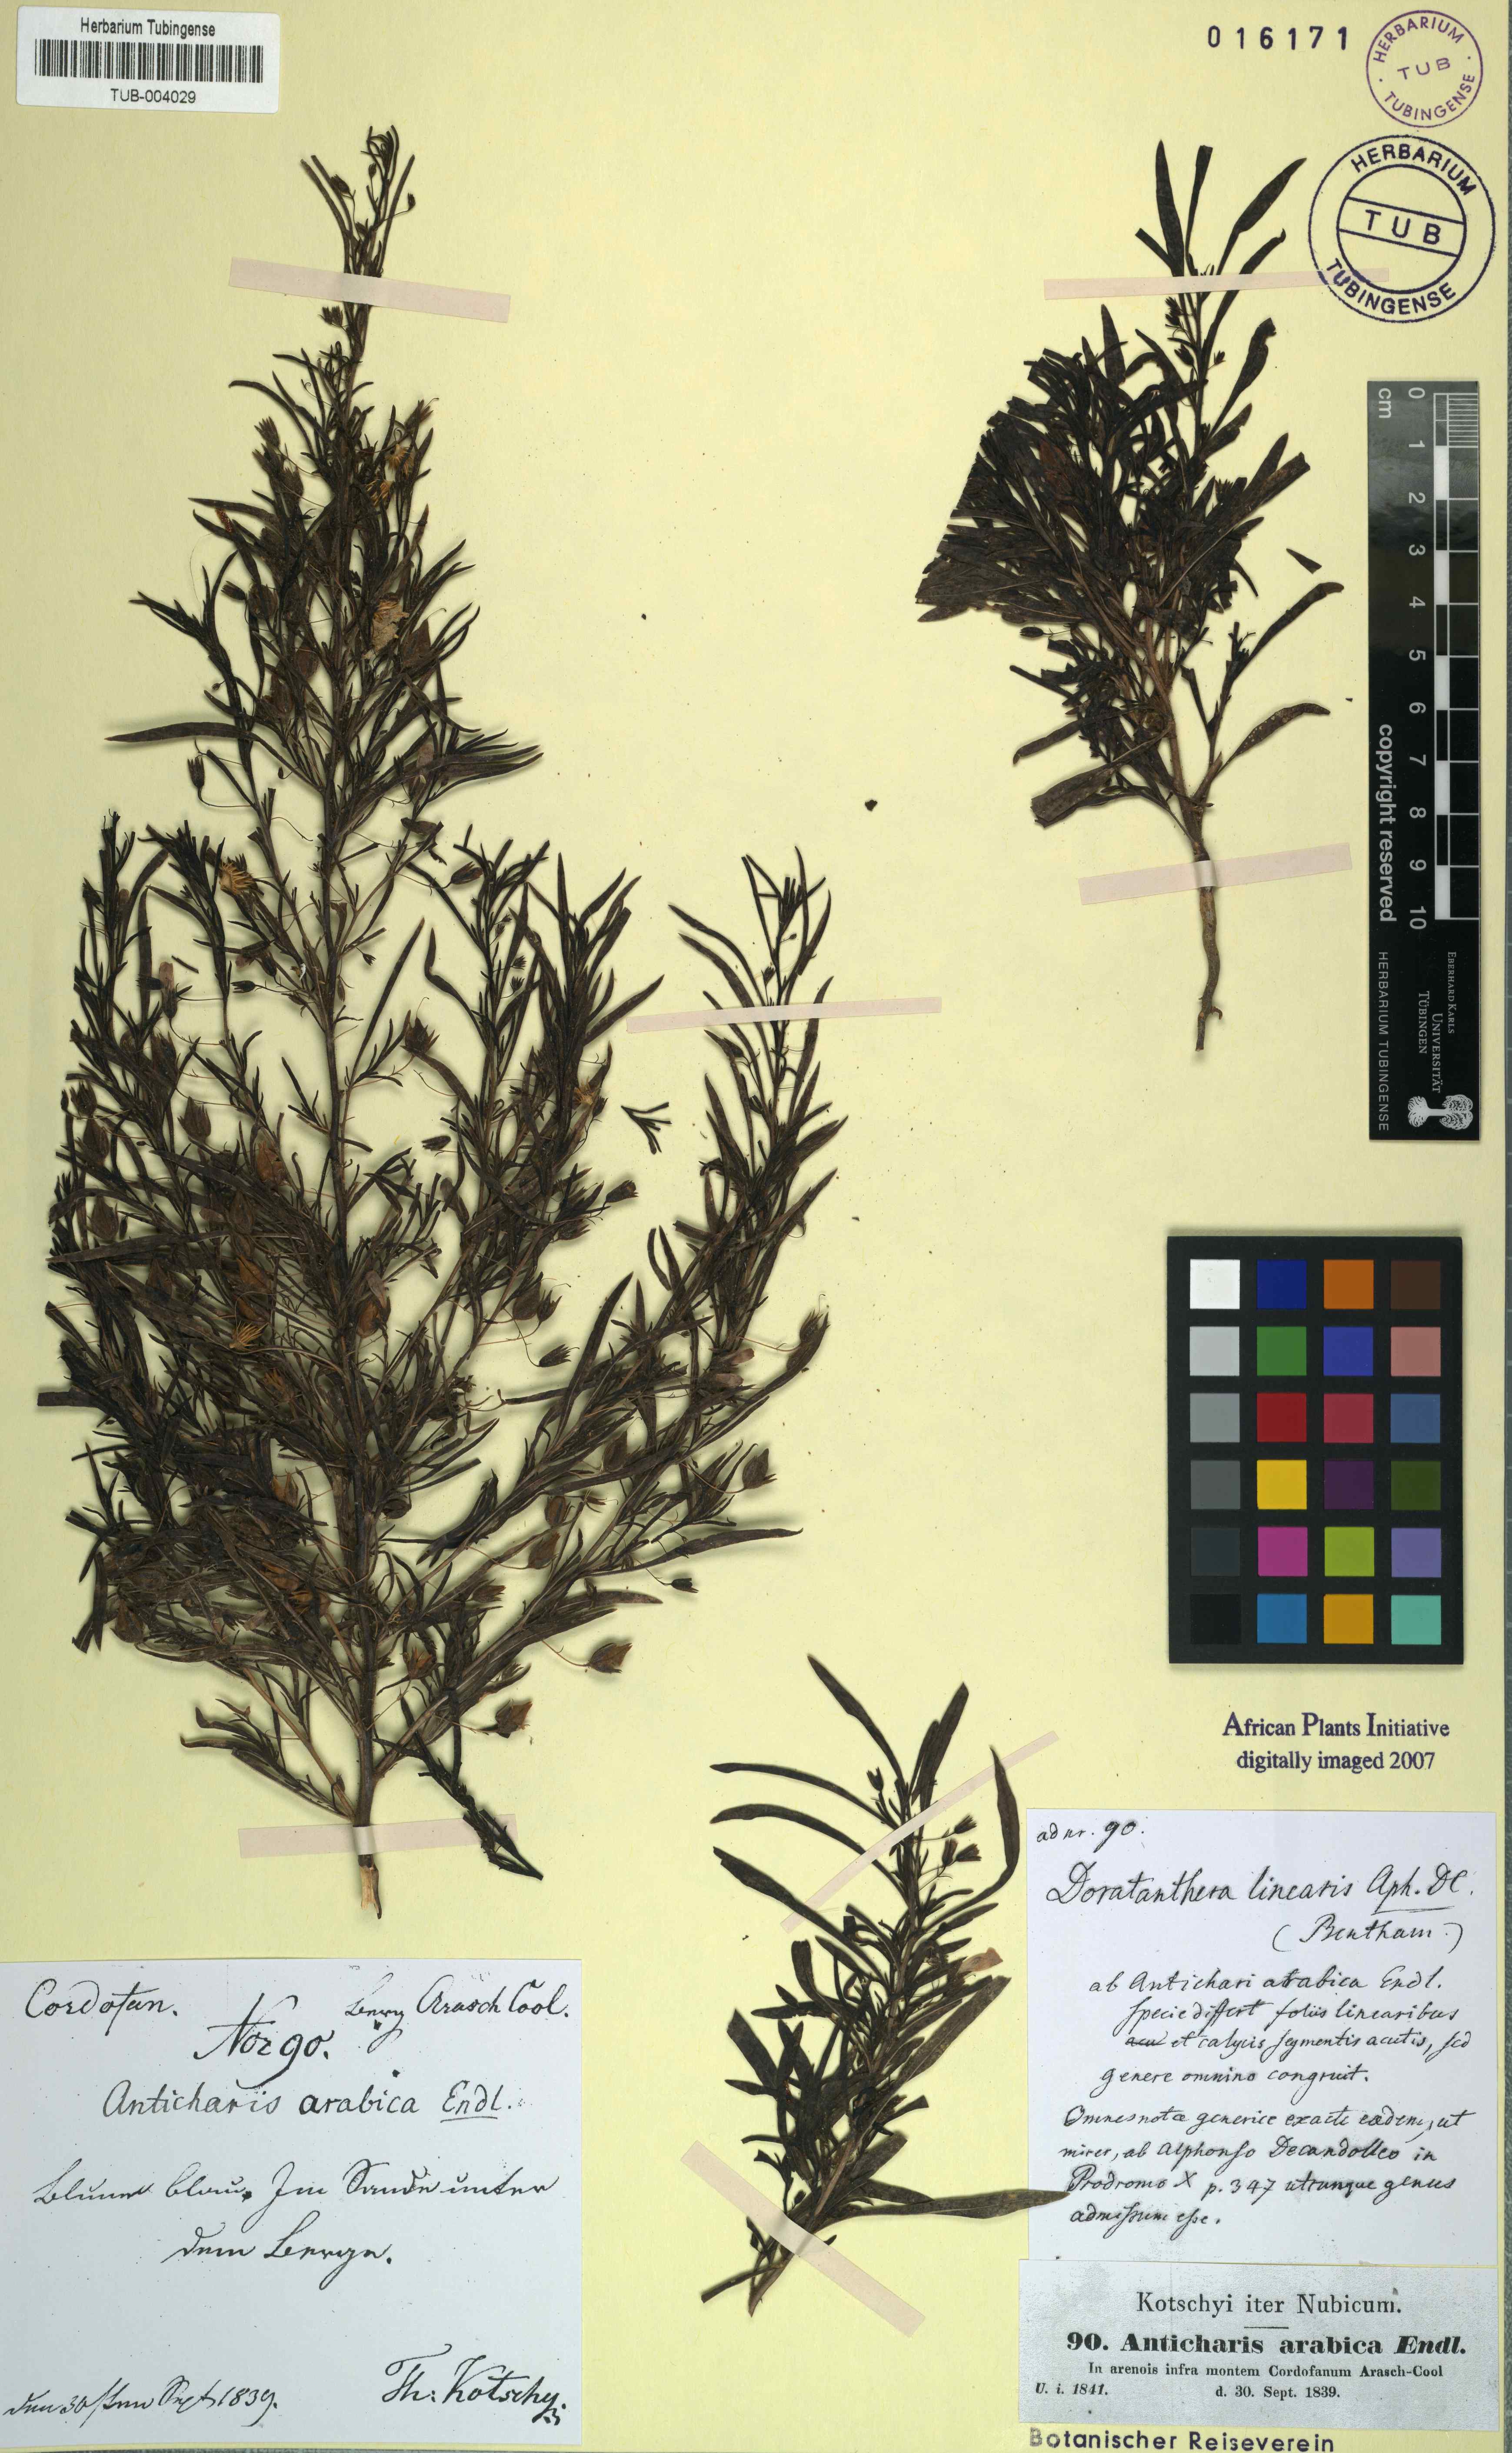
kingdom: Plantae
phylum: Tracheophyta
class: Magnoliopsida
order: Lamiales
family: Scrophulariaceae
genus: Anticharis
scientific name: Anticharis arabica
